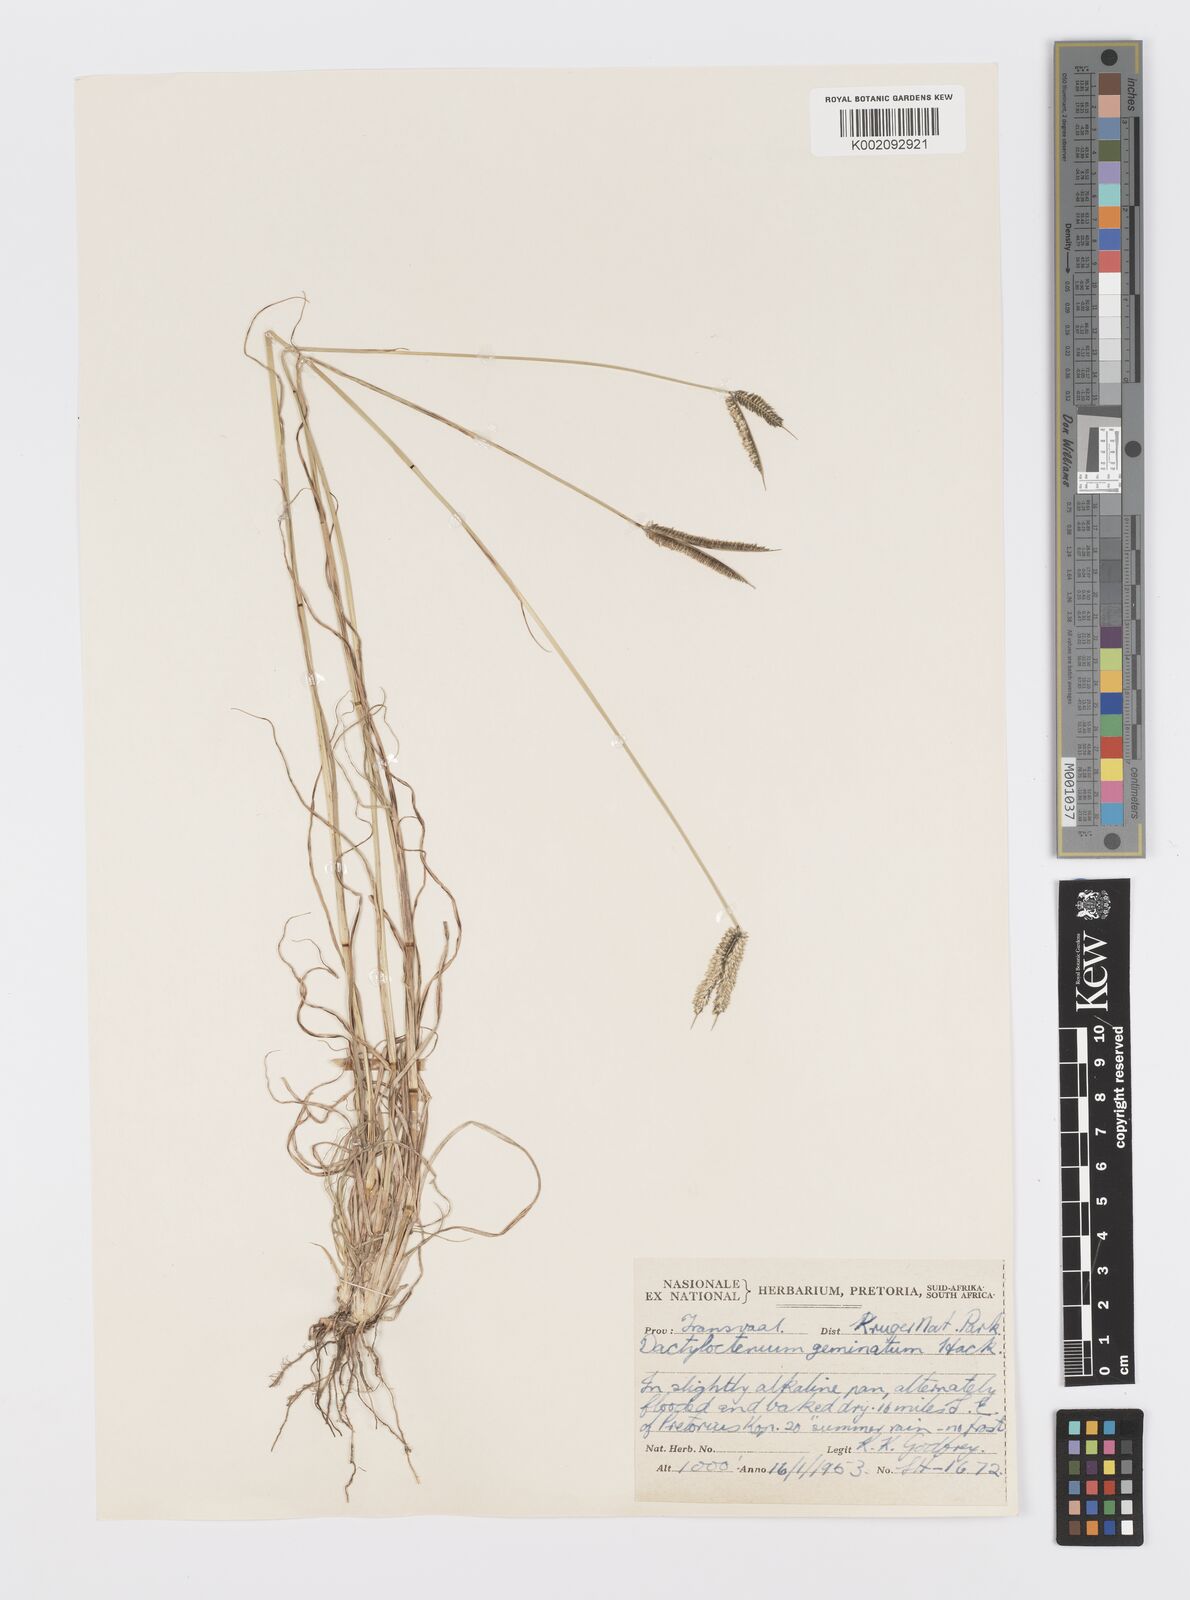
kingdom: Plantae
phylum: Tracheophyta
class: Liliopsida
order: Poales
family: Poaceae
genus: Dactyloctenium
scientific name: Dactyloctenium geminatum
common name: Crowsfoot grass
